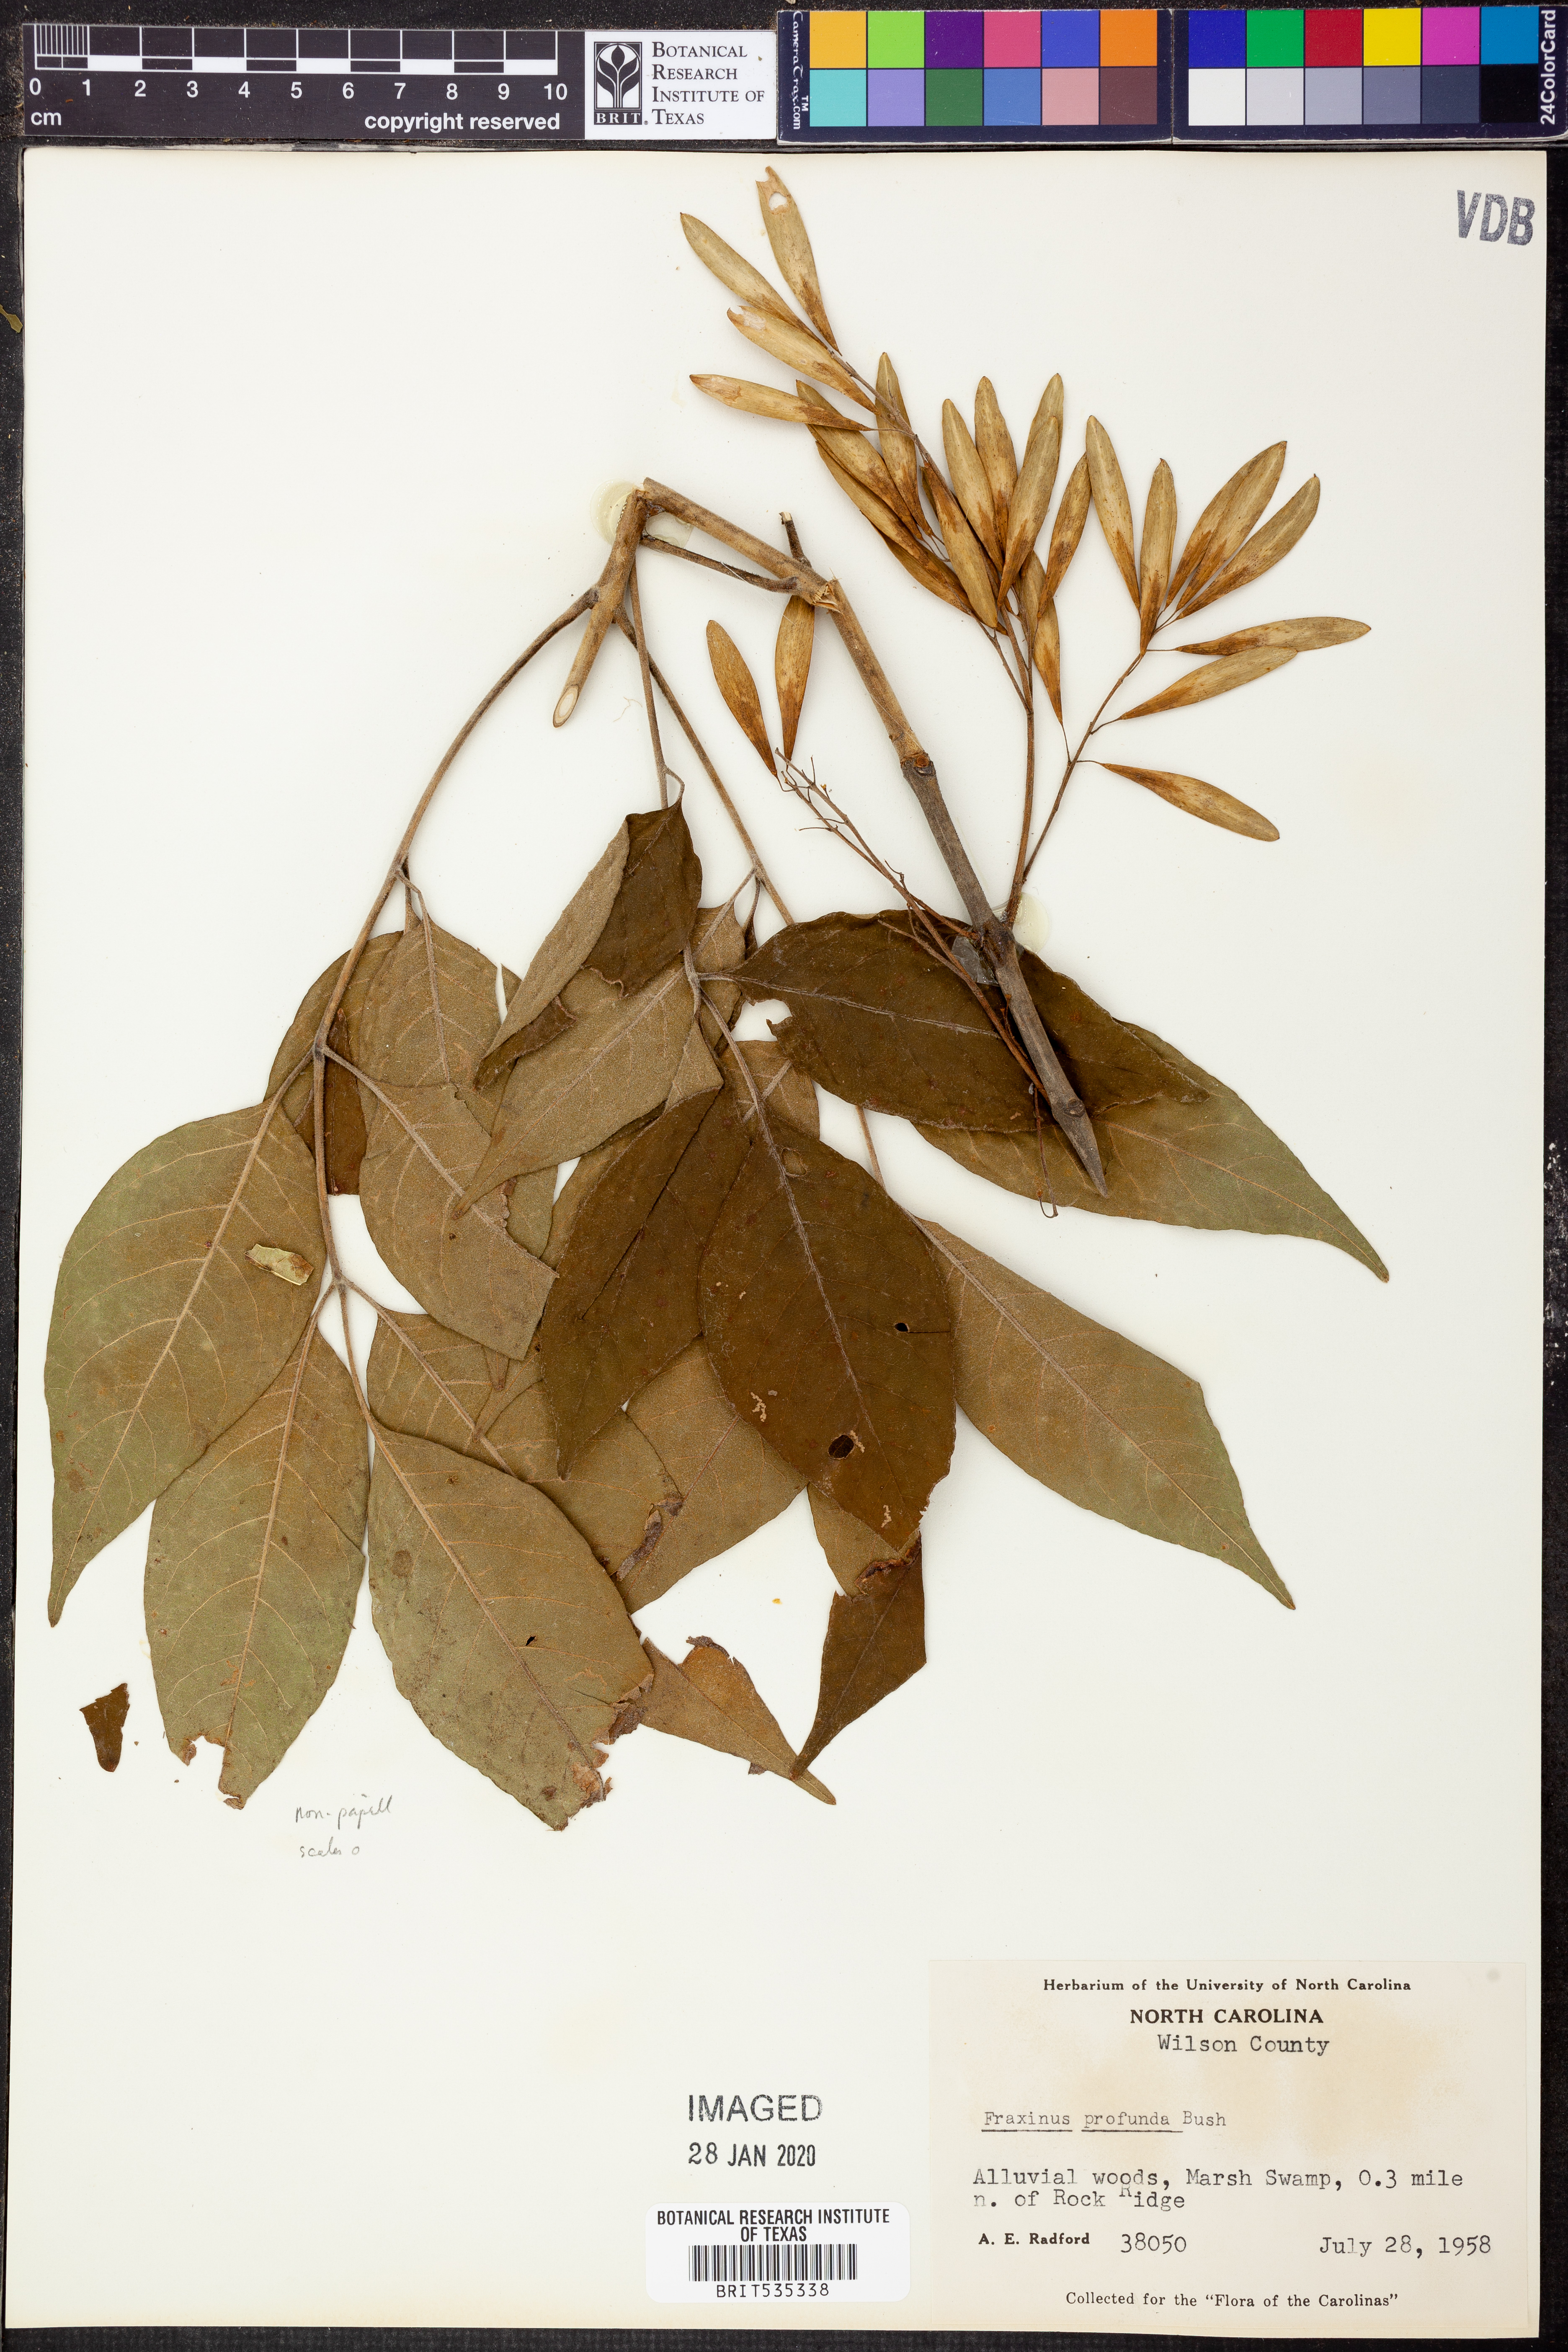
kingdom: Plantae
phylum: Tracheophyta
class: Magnoliopsida
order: Lamiales
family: Oleaceae
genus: Fraxinus
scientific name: Fraxinus profunda
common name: Pumpkin ash
